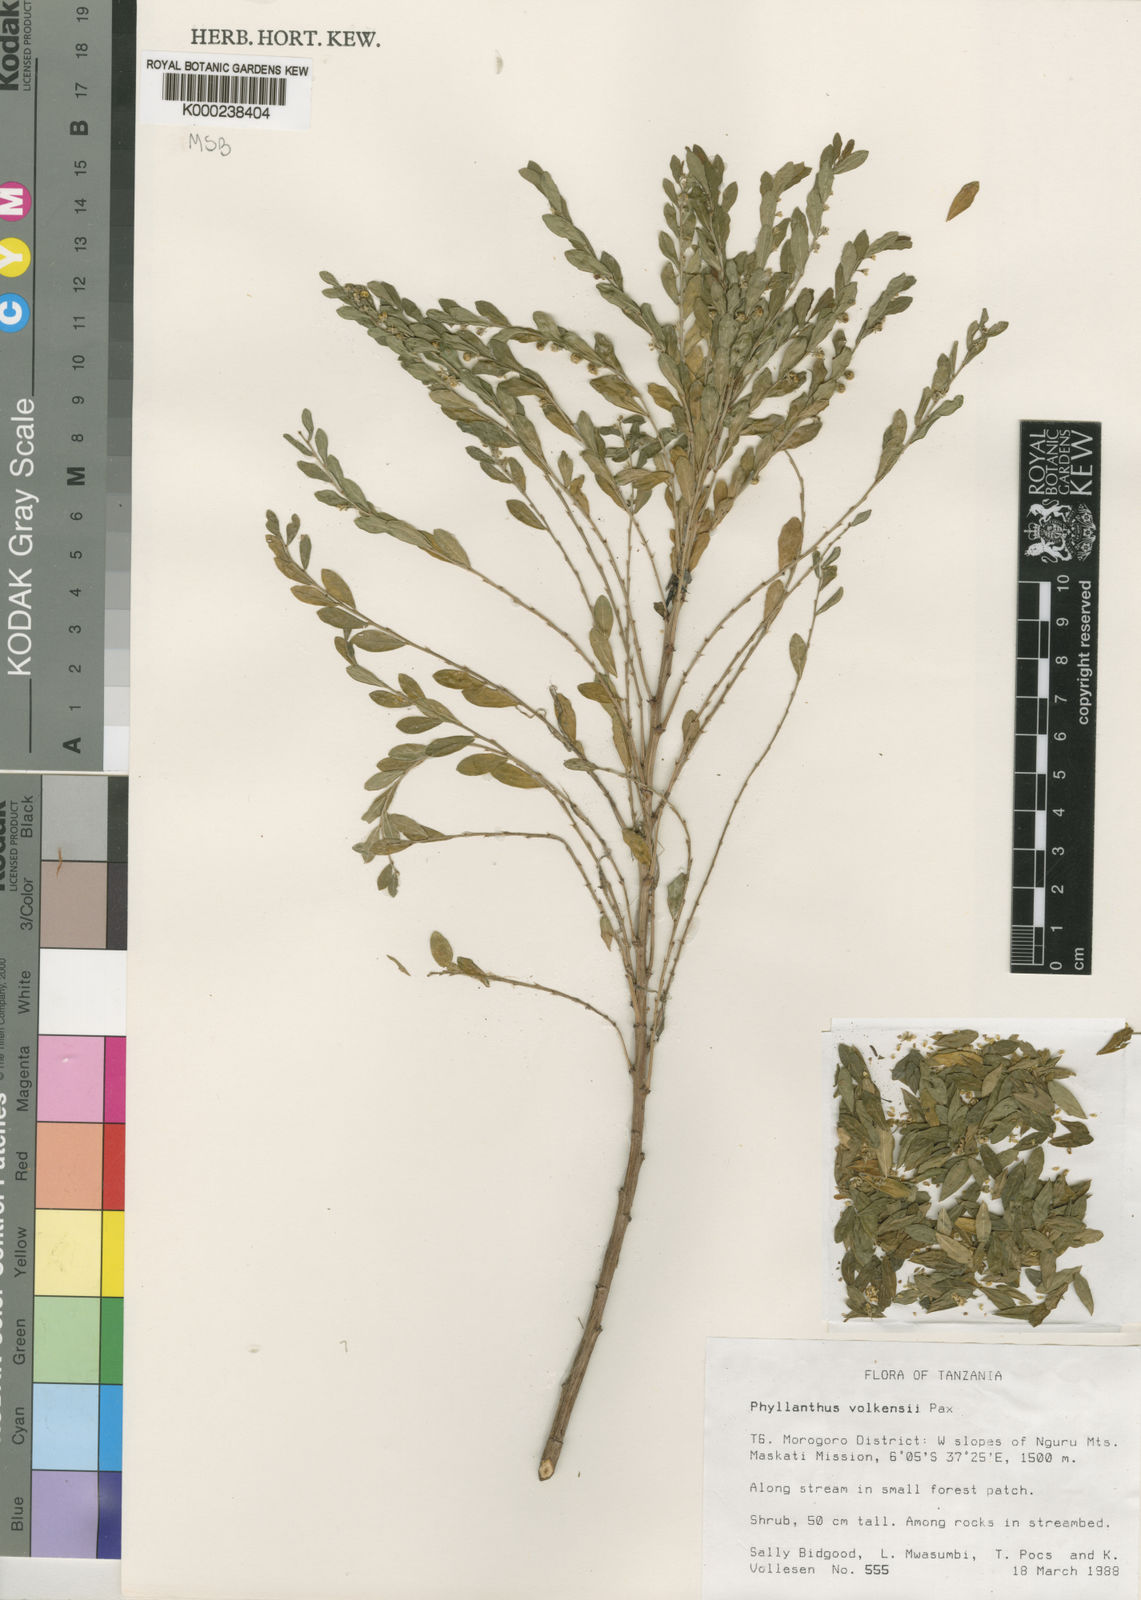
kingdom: Plantae
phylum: Tracheophyta
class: Magnoliopsida
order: Malpighiales
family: Phyllanthaceae
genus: Phyllanthus
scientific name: Phyllanthus volkensii
